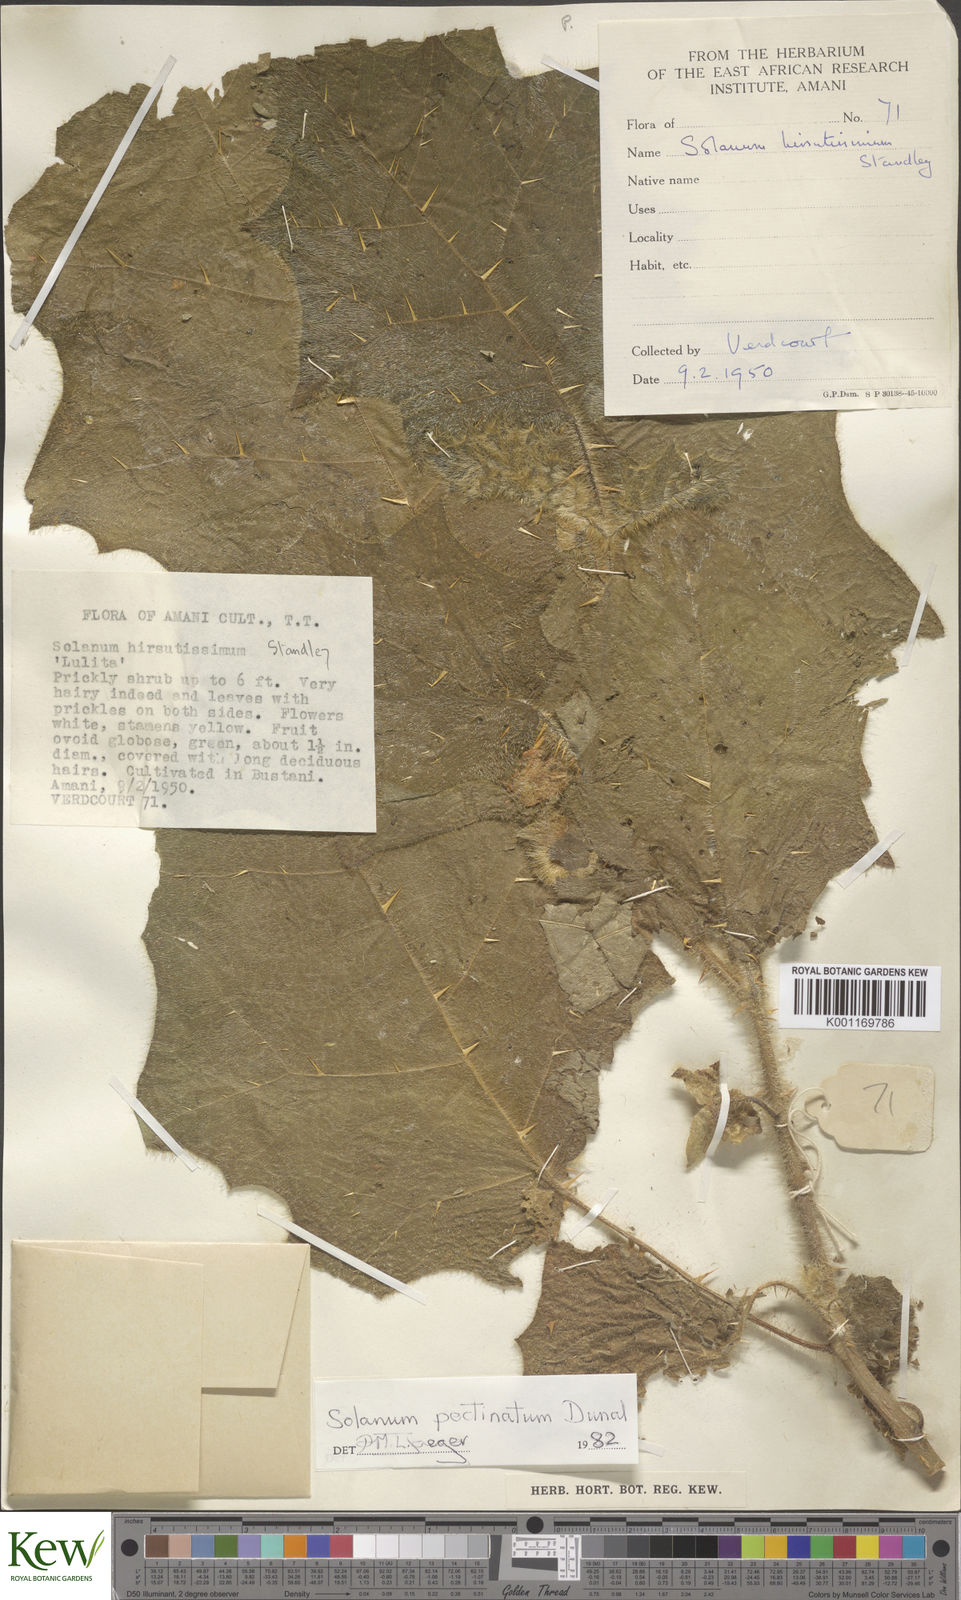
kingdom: Plantae
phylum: Tracheophyta
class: Magnoliopsida
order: Solanales
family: Solanaceae
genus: Solanum
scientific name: Solanum pectinatum
